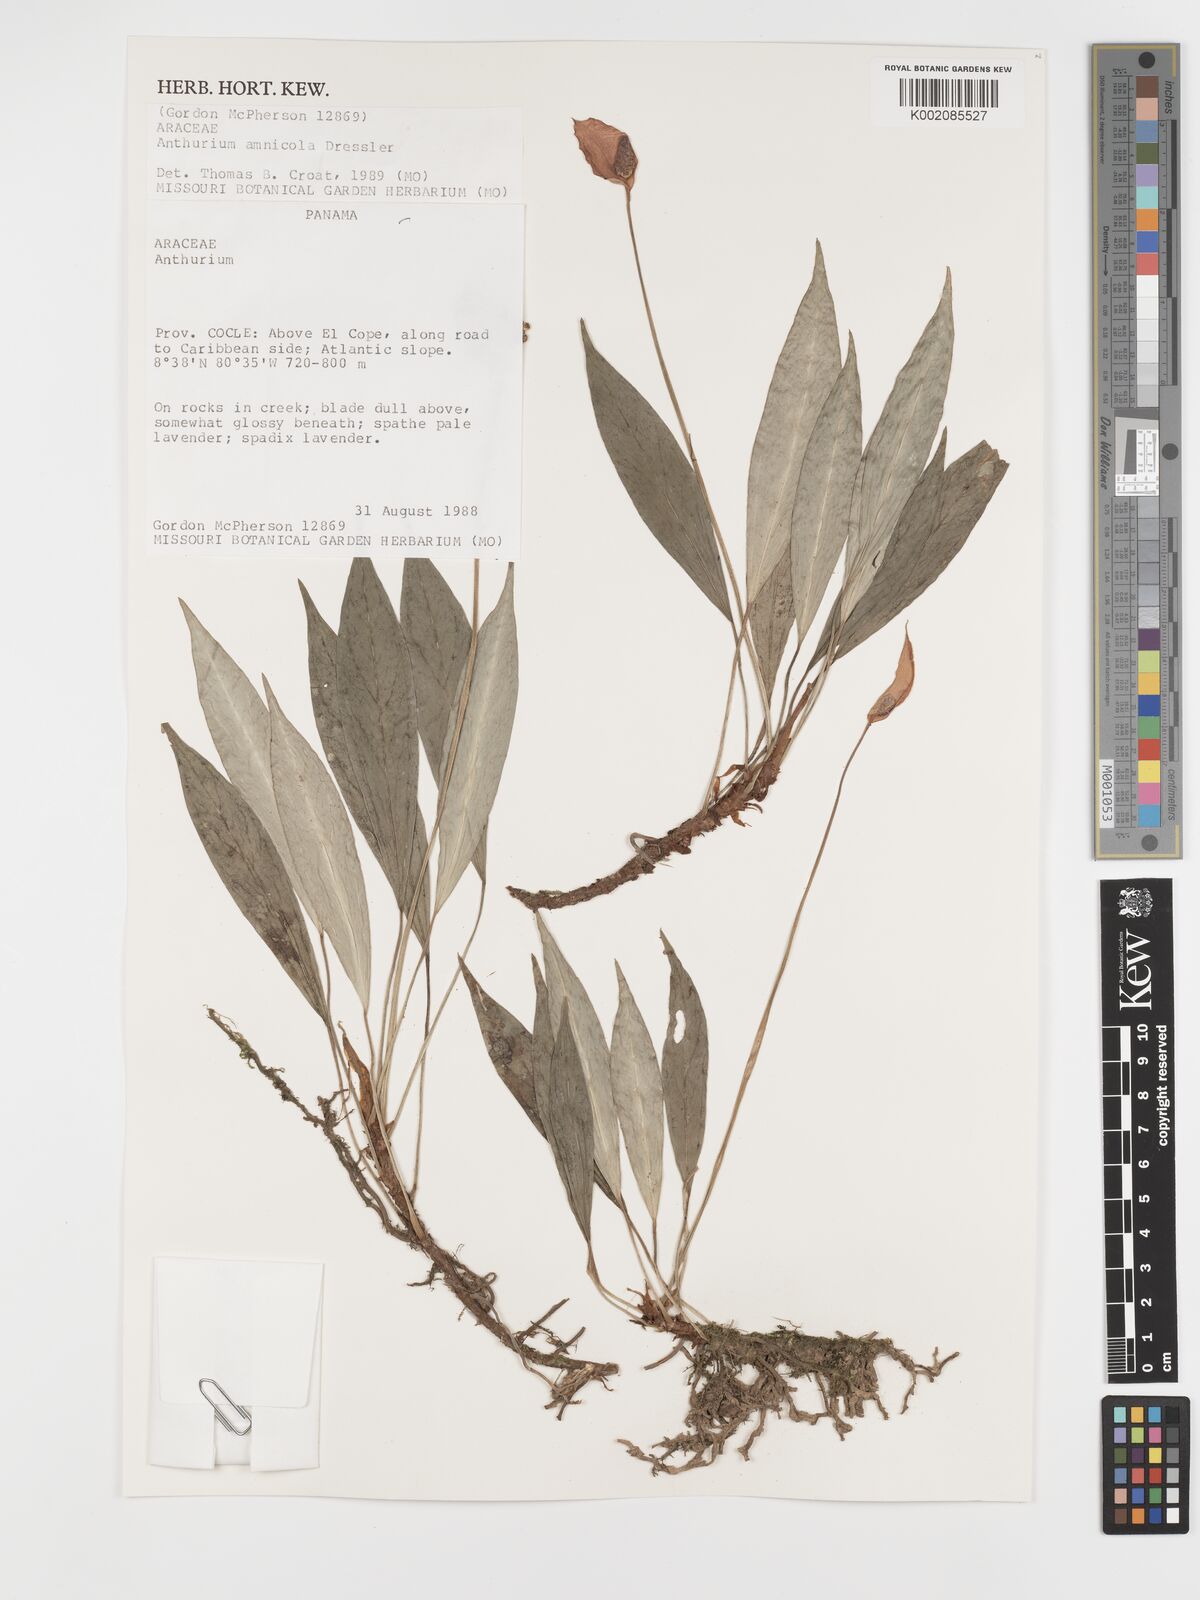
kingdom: Plantae
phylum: Tracheophyta
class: Liliopsida
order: Alismatales
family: Araceae
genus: Anthurium
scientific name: Anthurium amnicola
